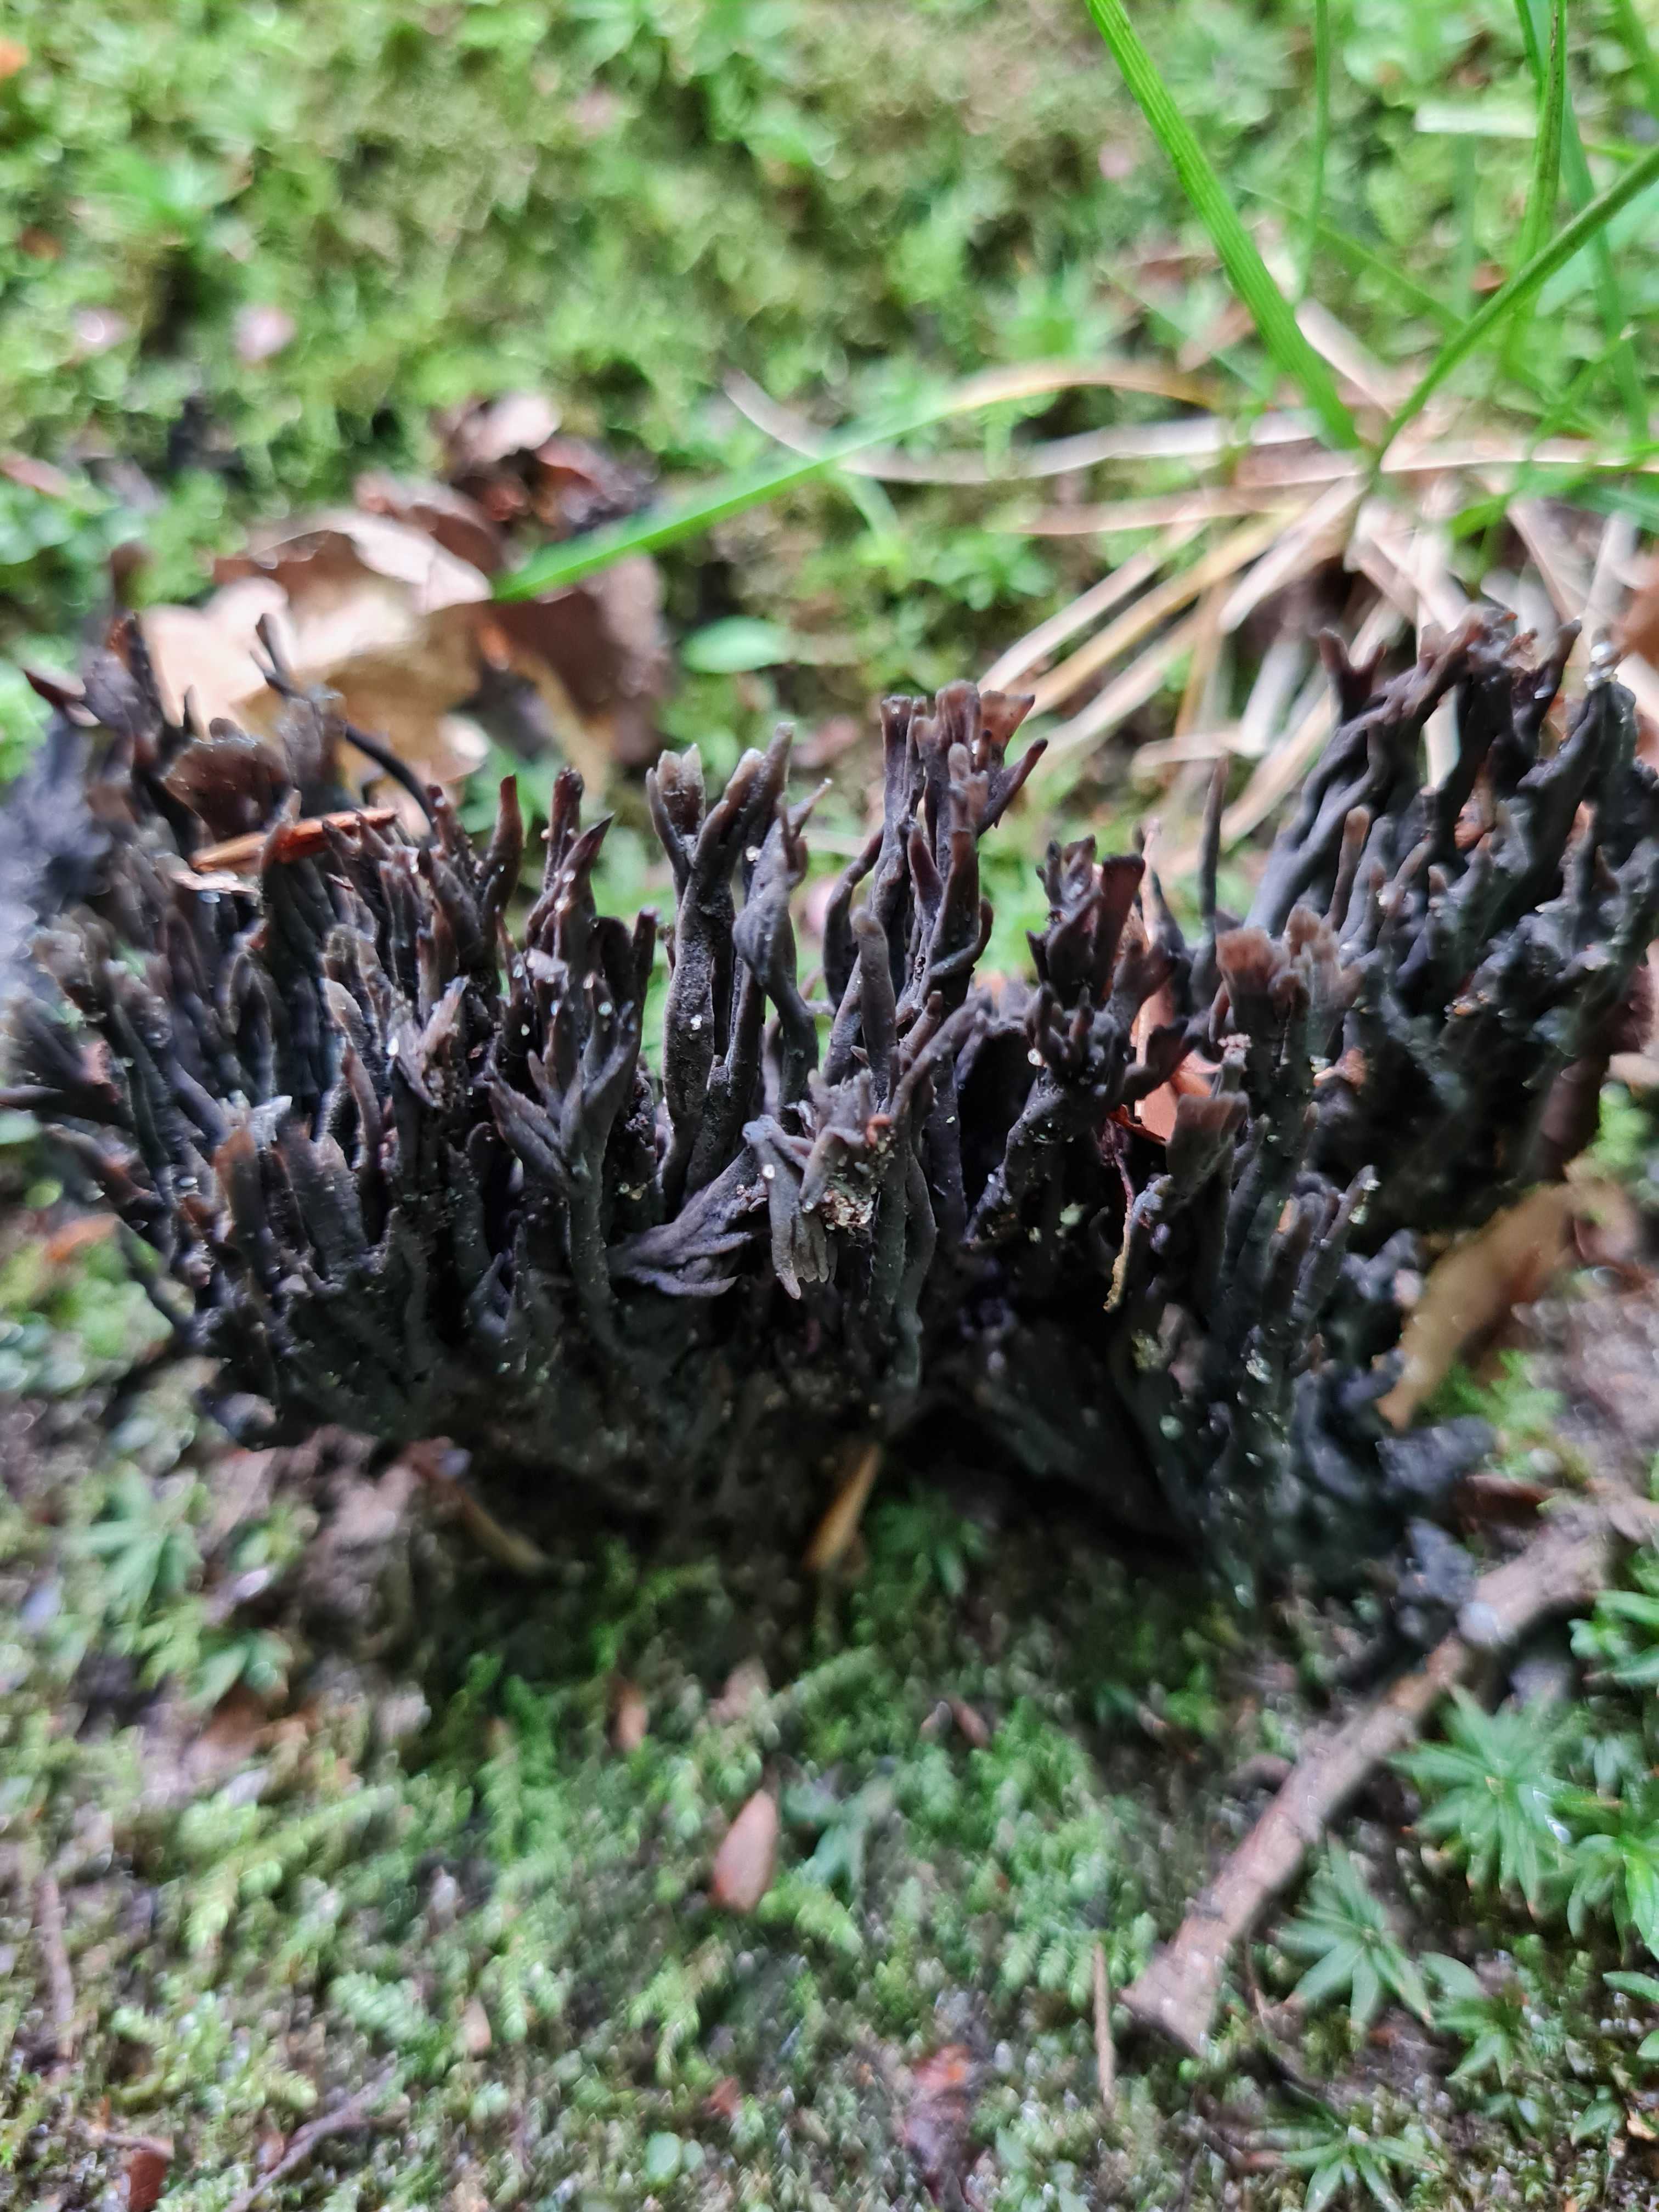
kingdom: Fungi
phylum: Basidiomycota
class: Agaricomycetes
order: Thelephorales
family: Thelephoraceae
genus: Thelephora
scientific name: Thelephora palmata
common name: grenet frynsesvamp
